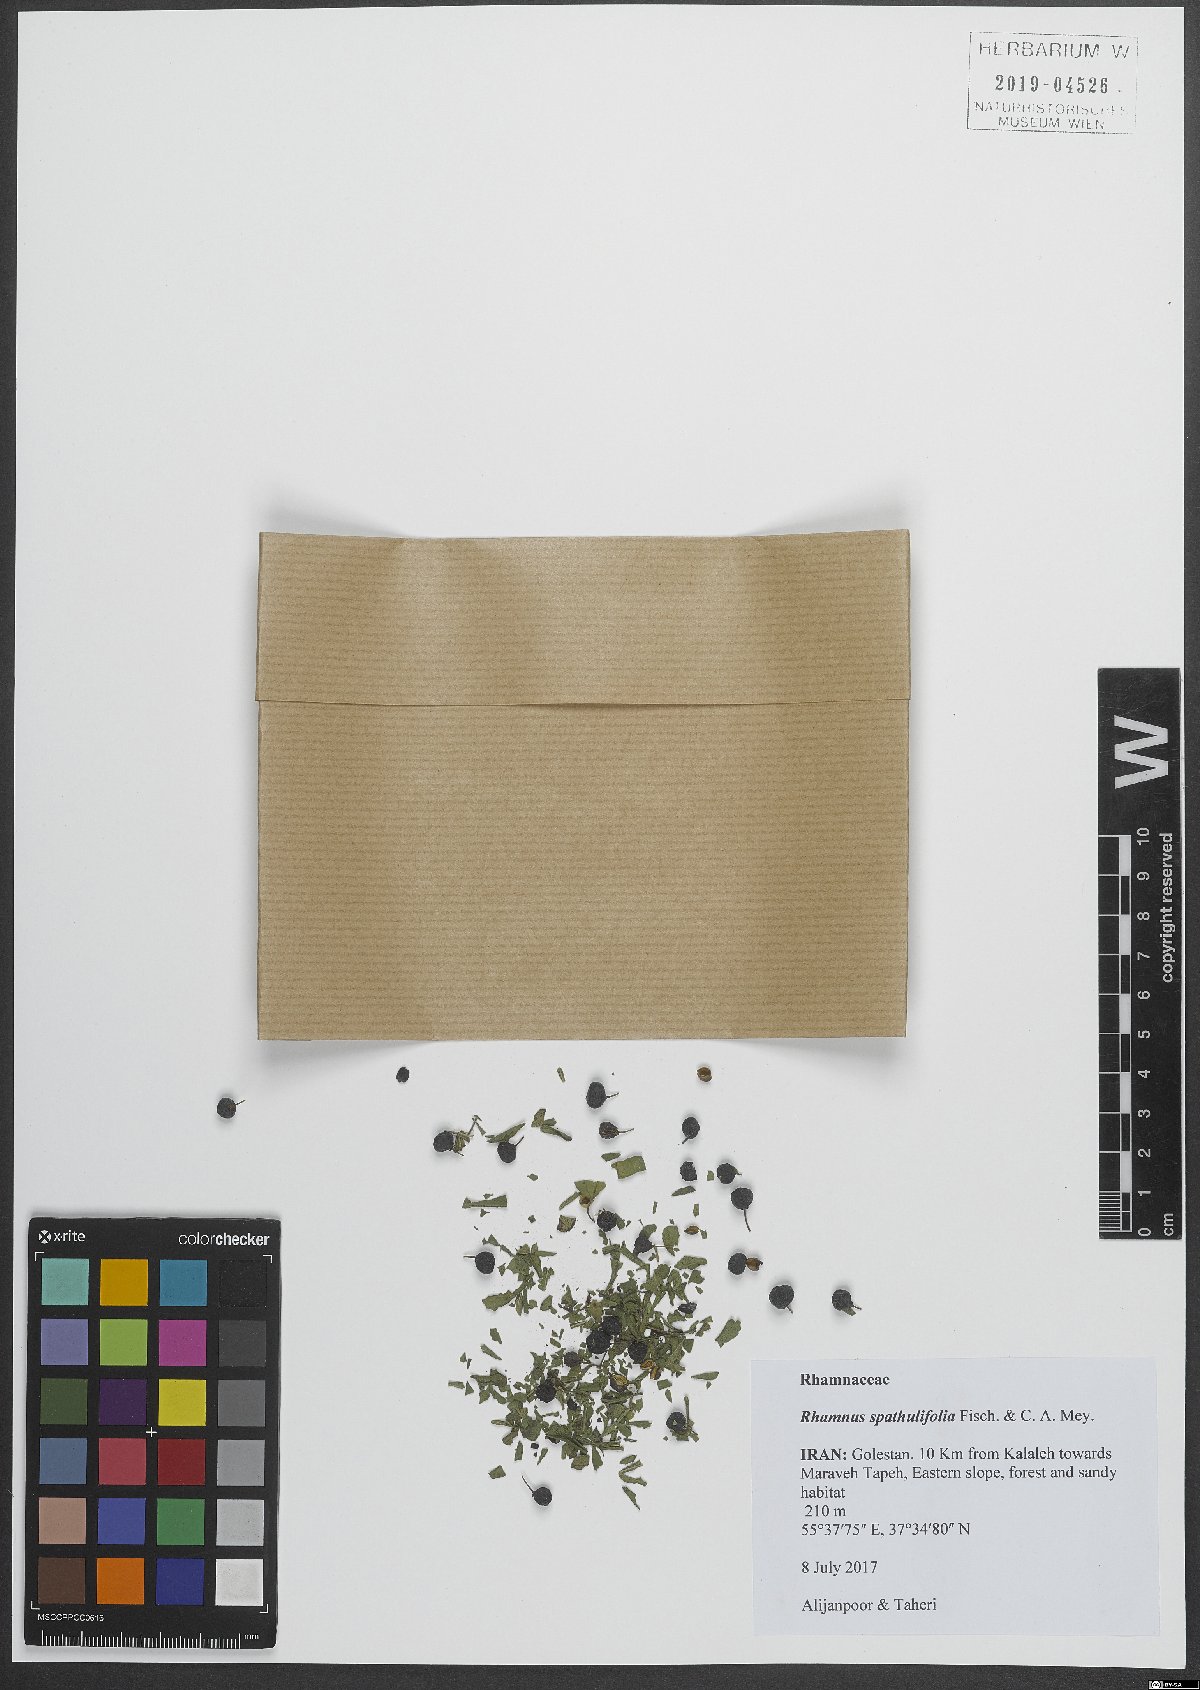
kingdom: Plantae
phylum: Tracheophyta
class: Magnoliopsida
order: Rosales
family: Rhamnaceae
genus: Rhamnus
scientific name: Rhamnus spathulifolia
